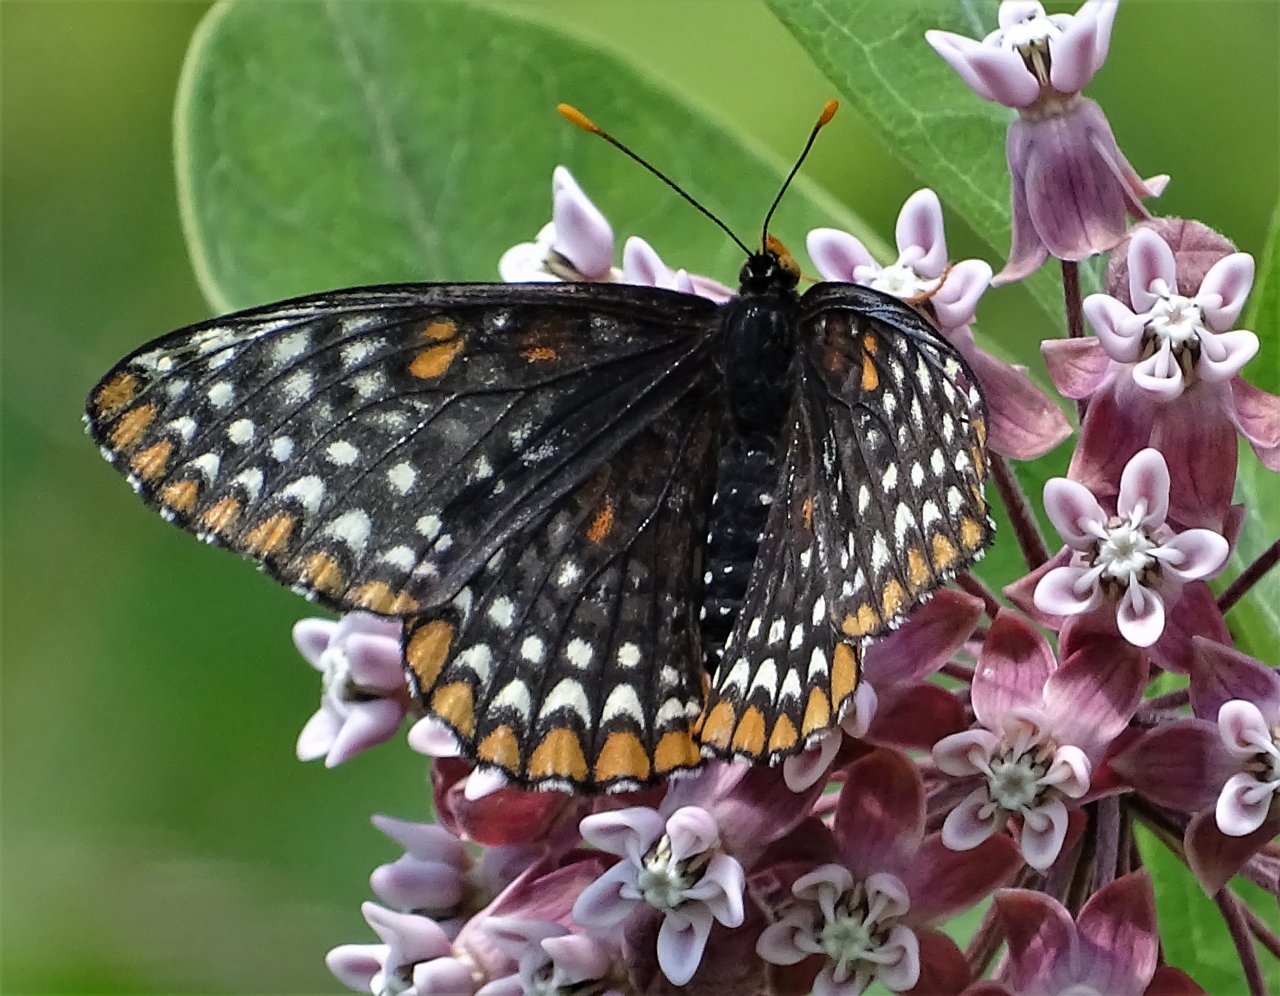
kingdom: Animalia
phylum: Arthropoda
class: Insecta
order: Lepidoptera
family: Nymphalidae
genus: Euphydryas
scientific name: Euphydryas phaeton
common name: Baltimore Checkerspot
